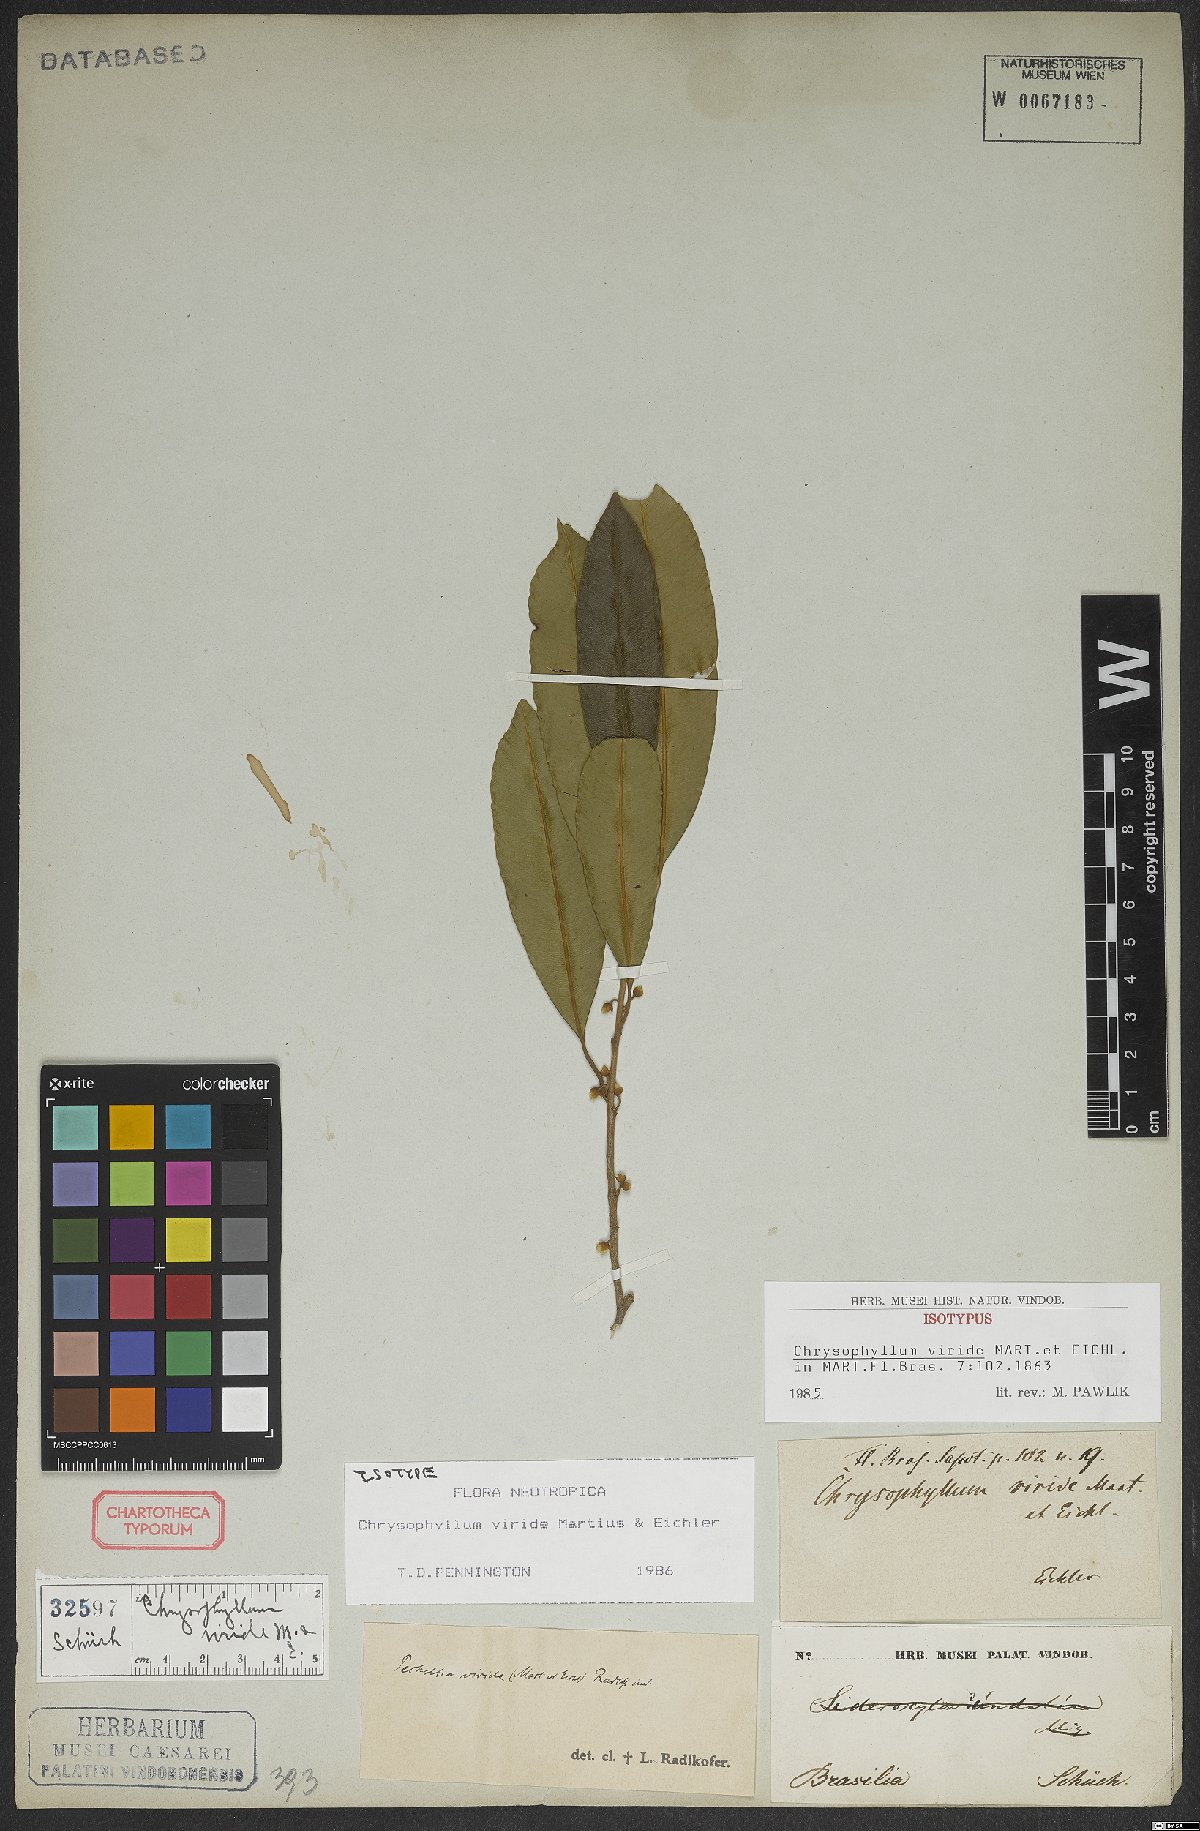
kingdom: Plantae
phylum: Tracheophyta
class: Magnoliopsida
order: Ericales
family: Sapotaceae
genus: Chrysophyllum
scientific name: Chrysophyllum viride
